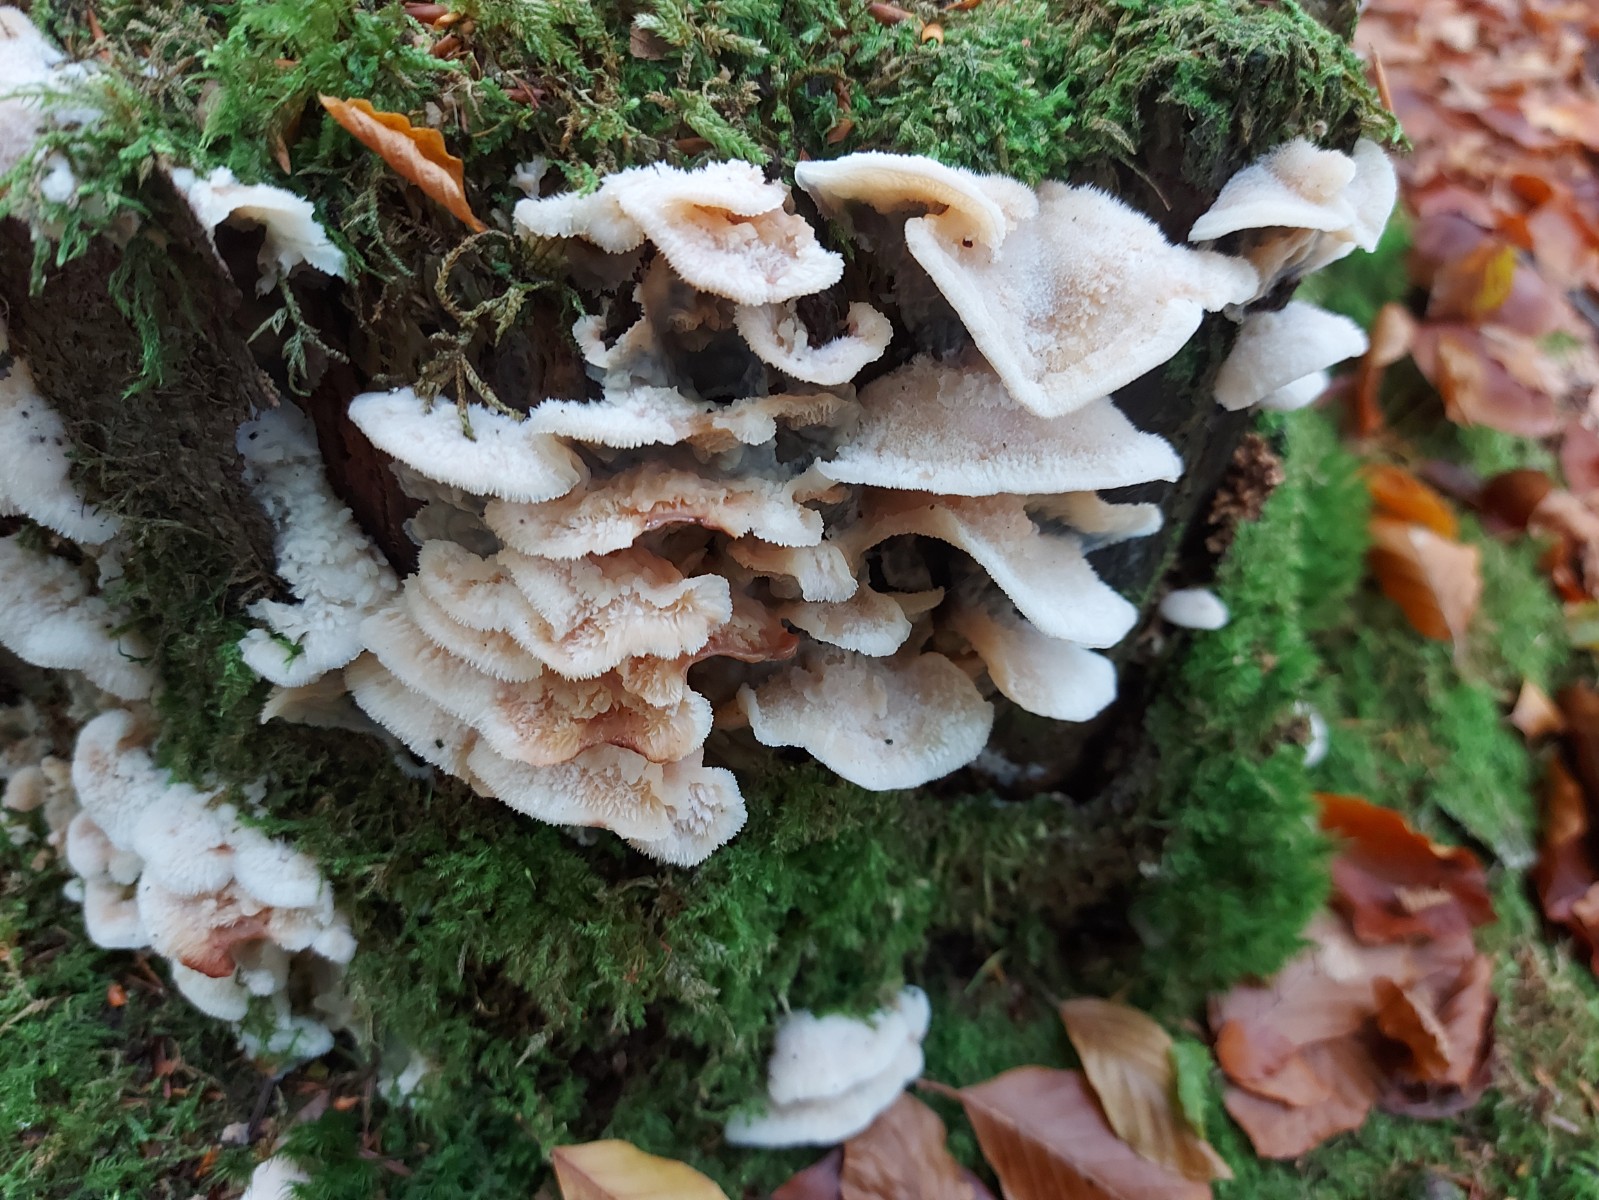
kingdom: Fungi
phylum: Basidiomycota
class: Agaricomycetes
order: Polyporales
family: Meruliaceae
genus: Phlebia
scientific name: Phlebia tremellosa
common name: bævrende åresvamp
